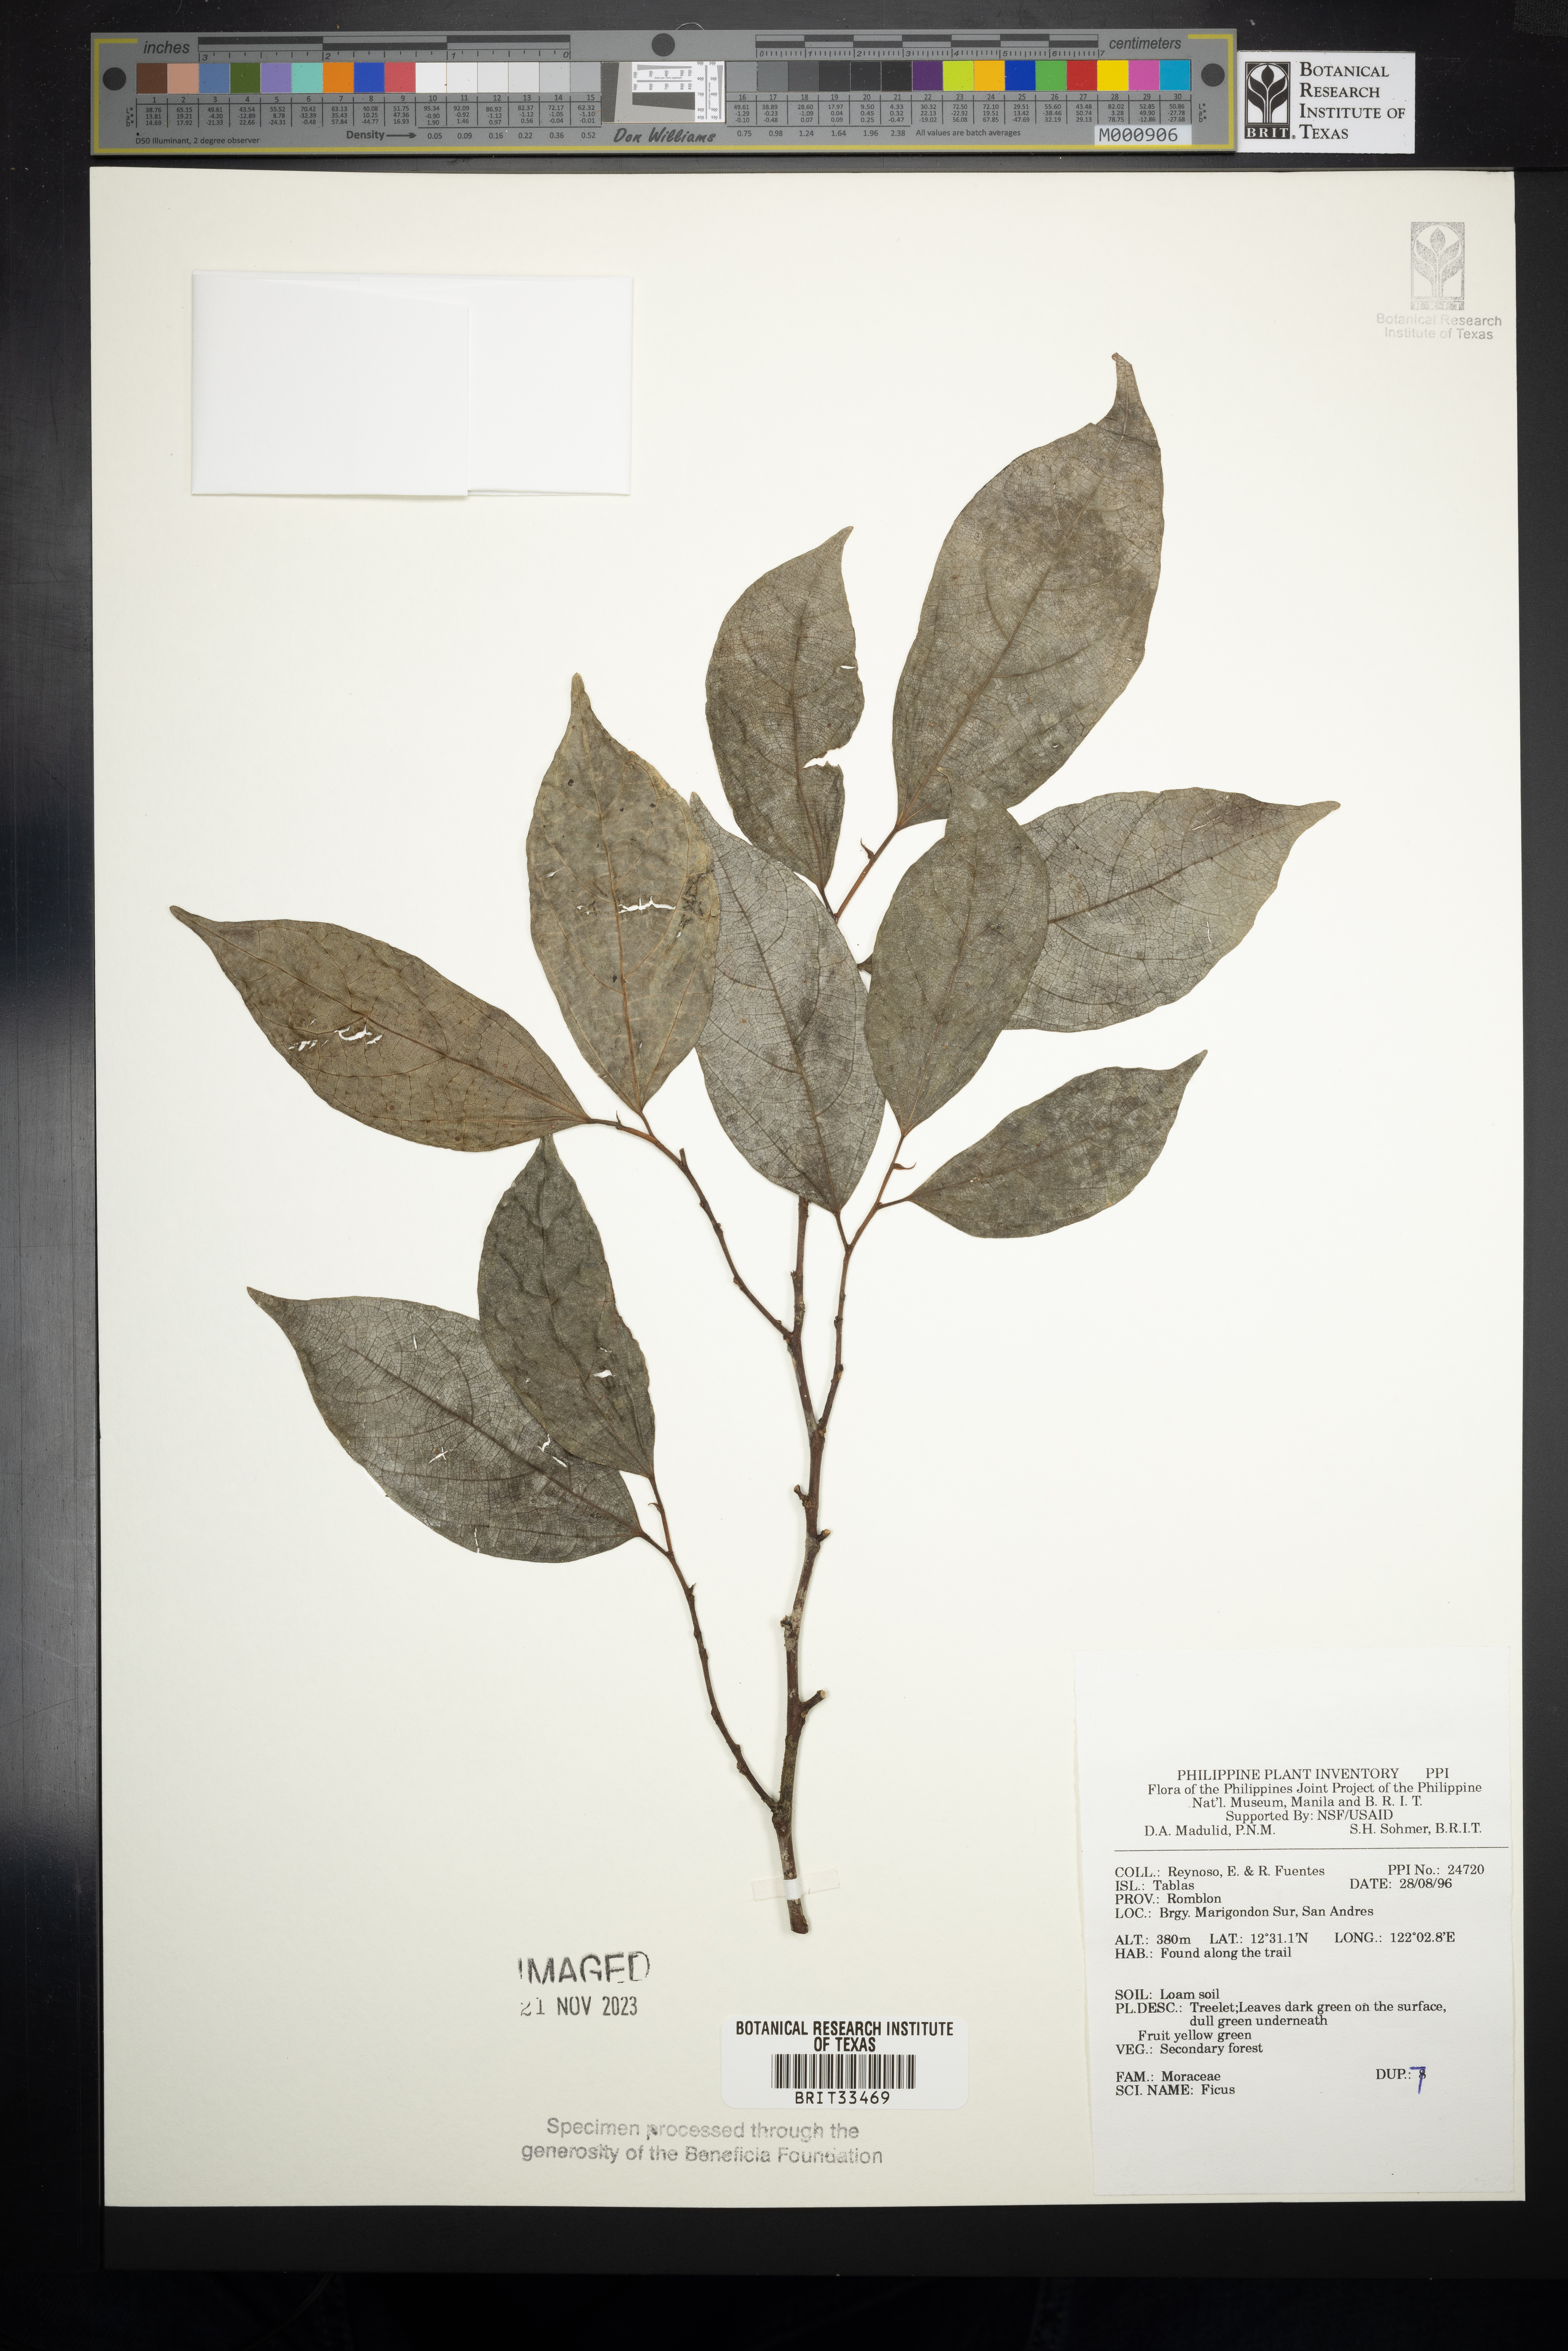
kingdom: Plantae
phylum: Tracheophyta
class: Magnoliopsida
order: Rosales
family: Moraceae
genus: Ficus
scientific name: Ficus
